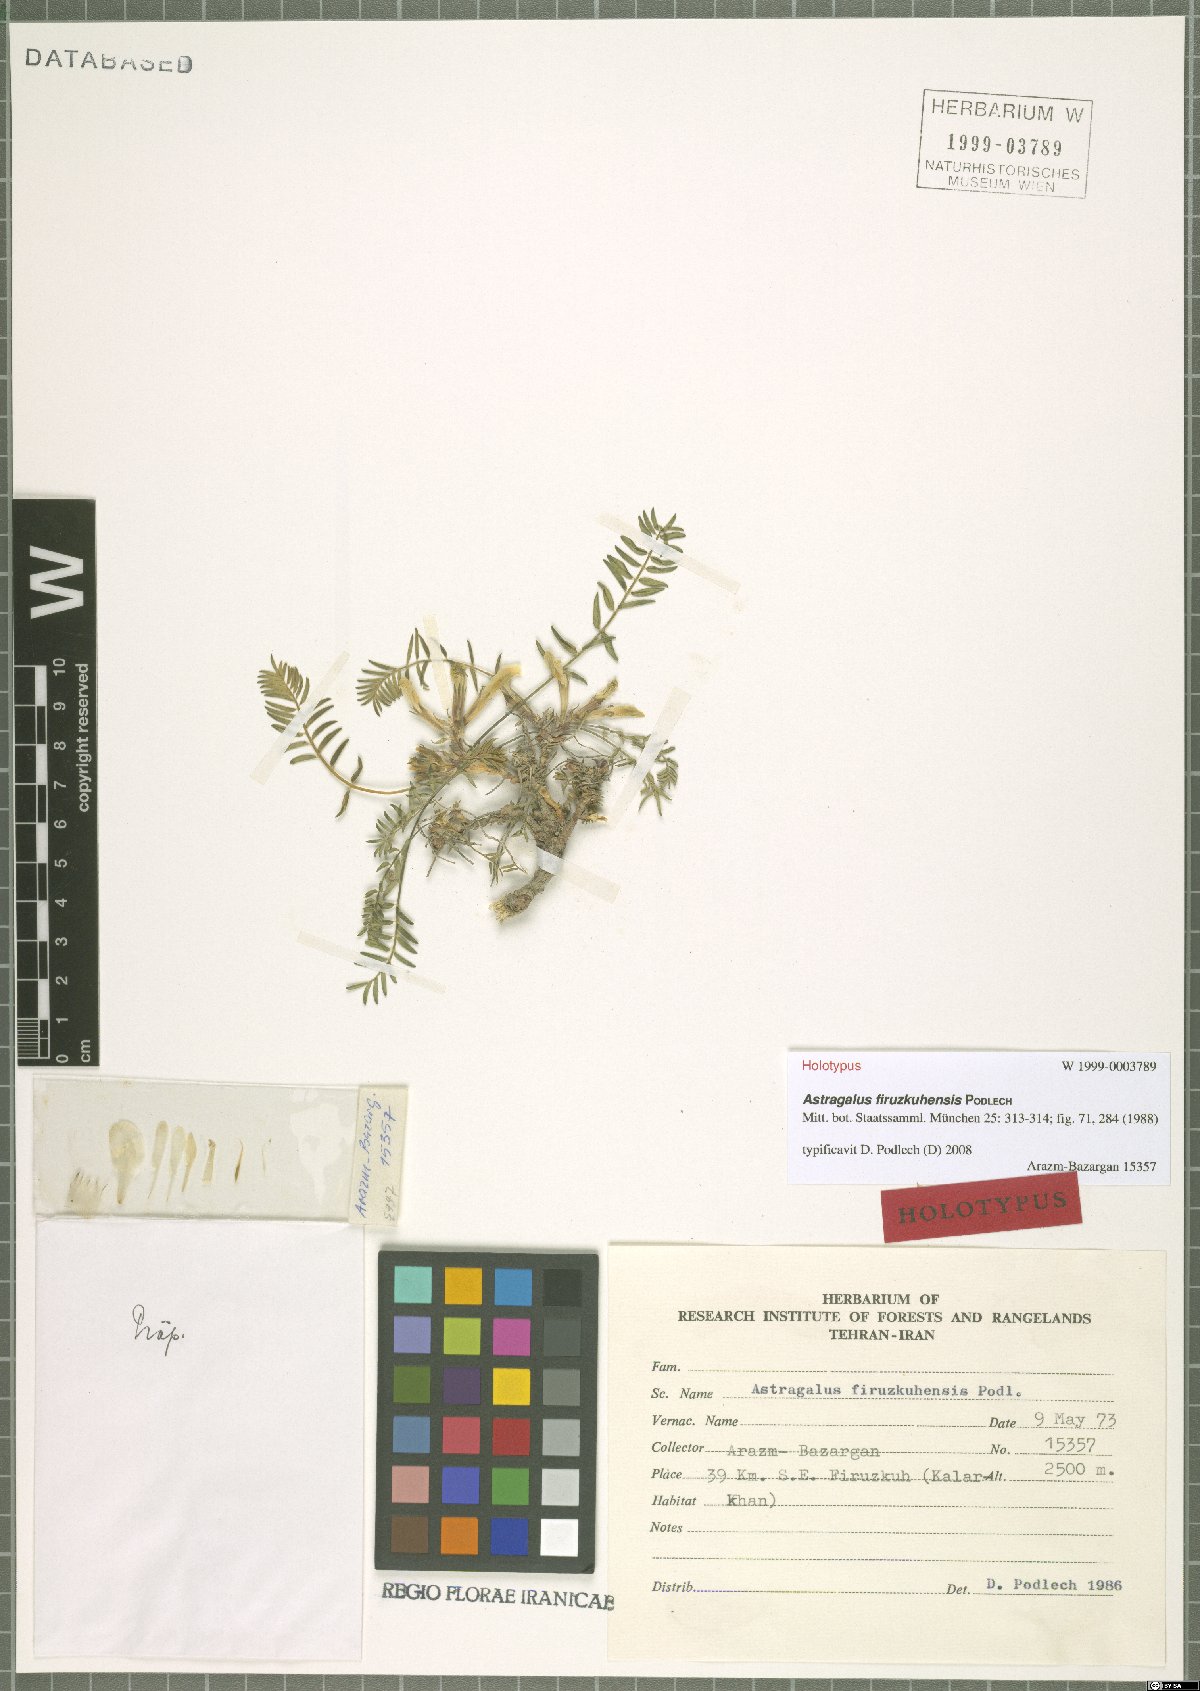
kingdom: Plantae
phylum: Tracheophyta
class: Magnoliopsida
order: Fabales
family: Fabaceae
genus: Astragalus
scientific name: Astragalus firuzkuhensis
